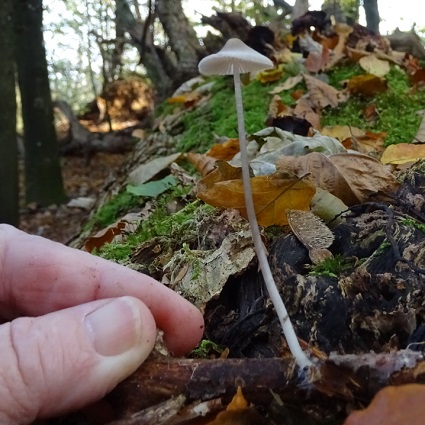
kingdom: Fungi
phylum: Basidiomycota
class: Agaricomycetes
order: Agaricales
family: Mycenaceae
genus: Mycena
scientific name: Mycena vitilis
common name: blankstokket huesvamp
